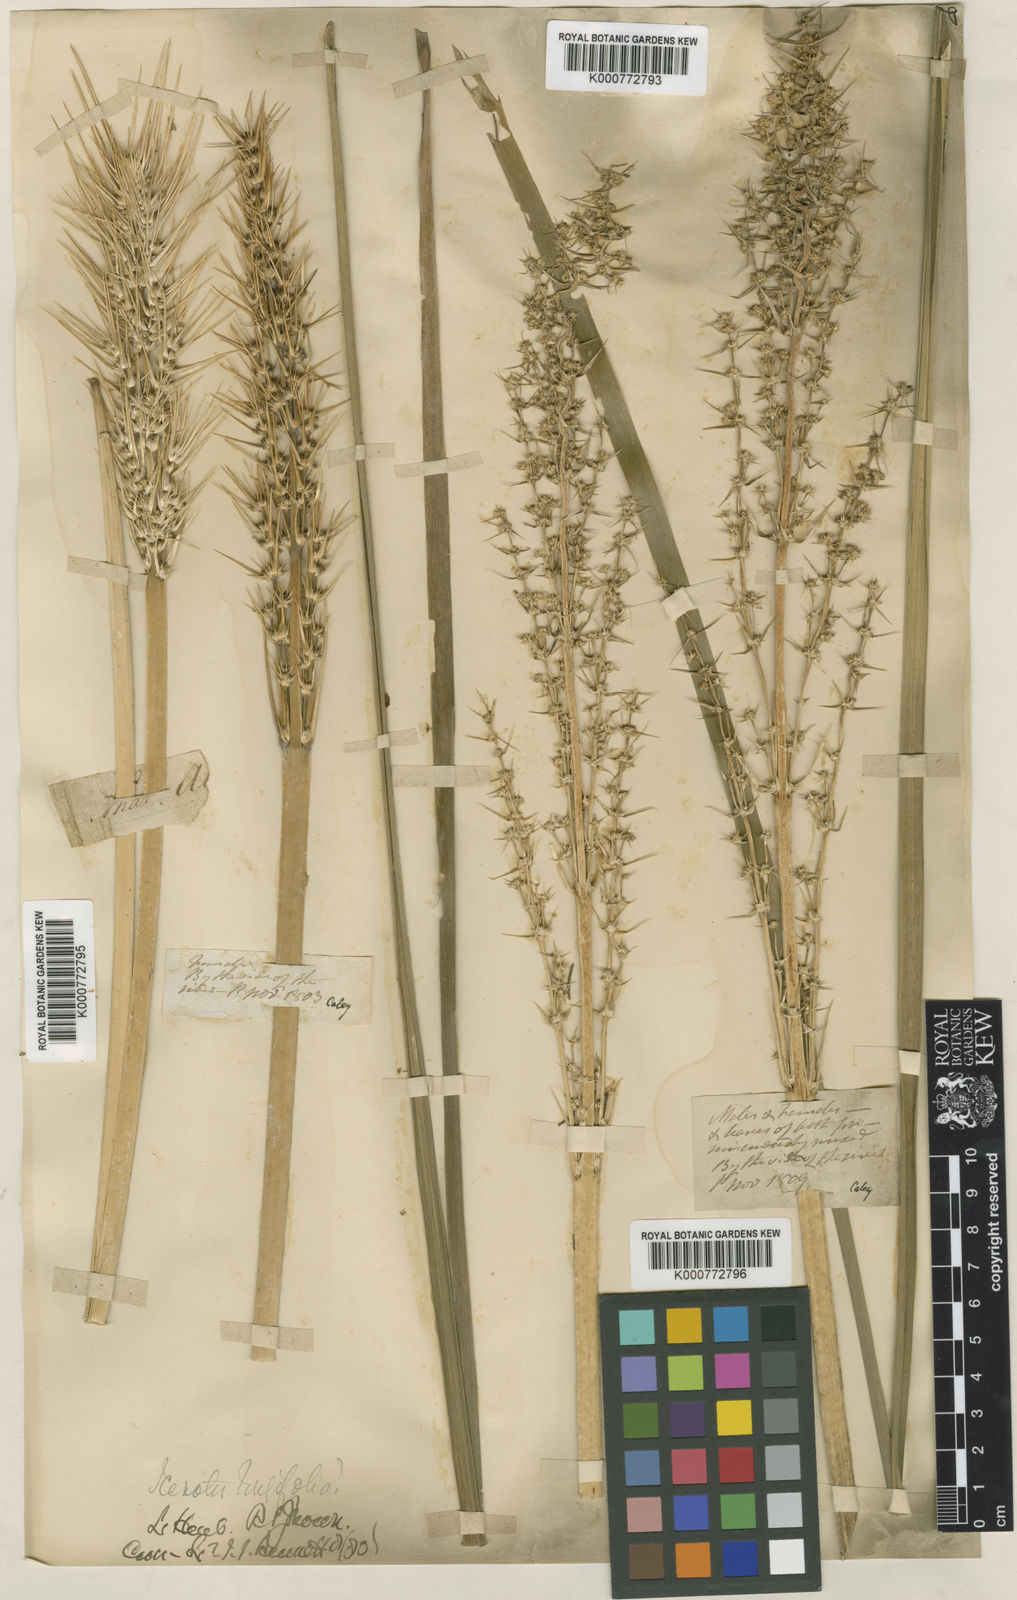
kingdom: Plantae
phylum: Tracheophyta
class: Liliopsida
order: Asparagales
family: Asparagaceae
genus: Lomandra
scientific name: Lomandra longifolia
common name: Longleaf mat-rush
